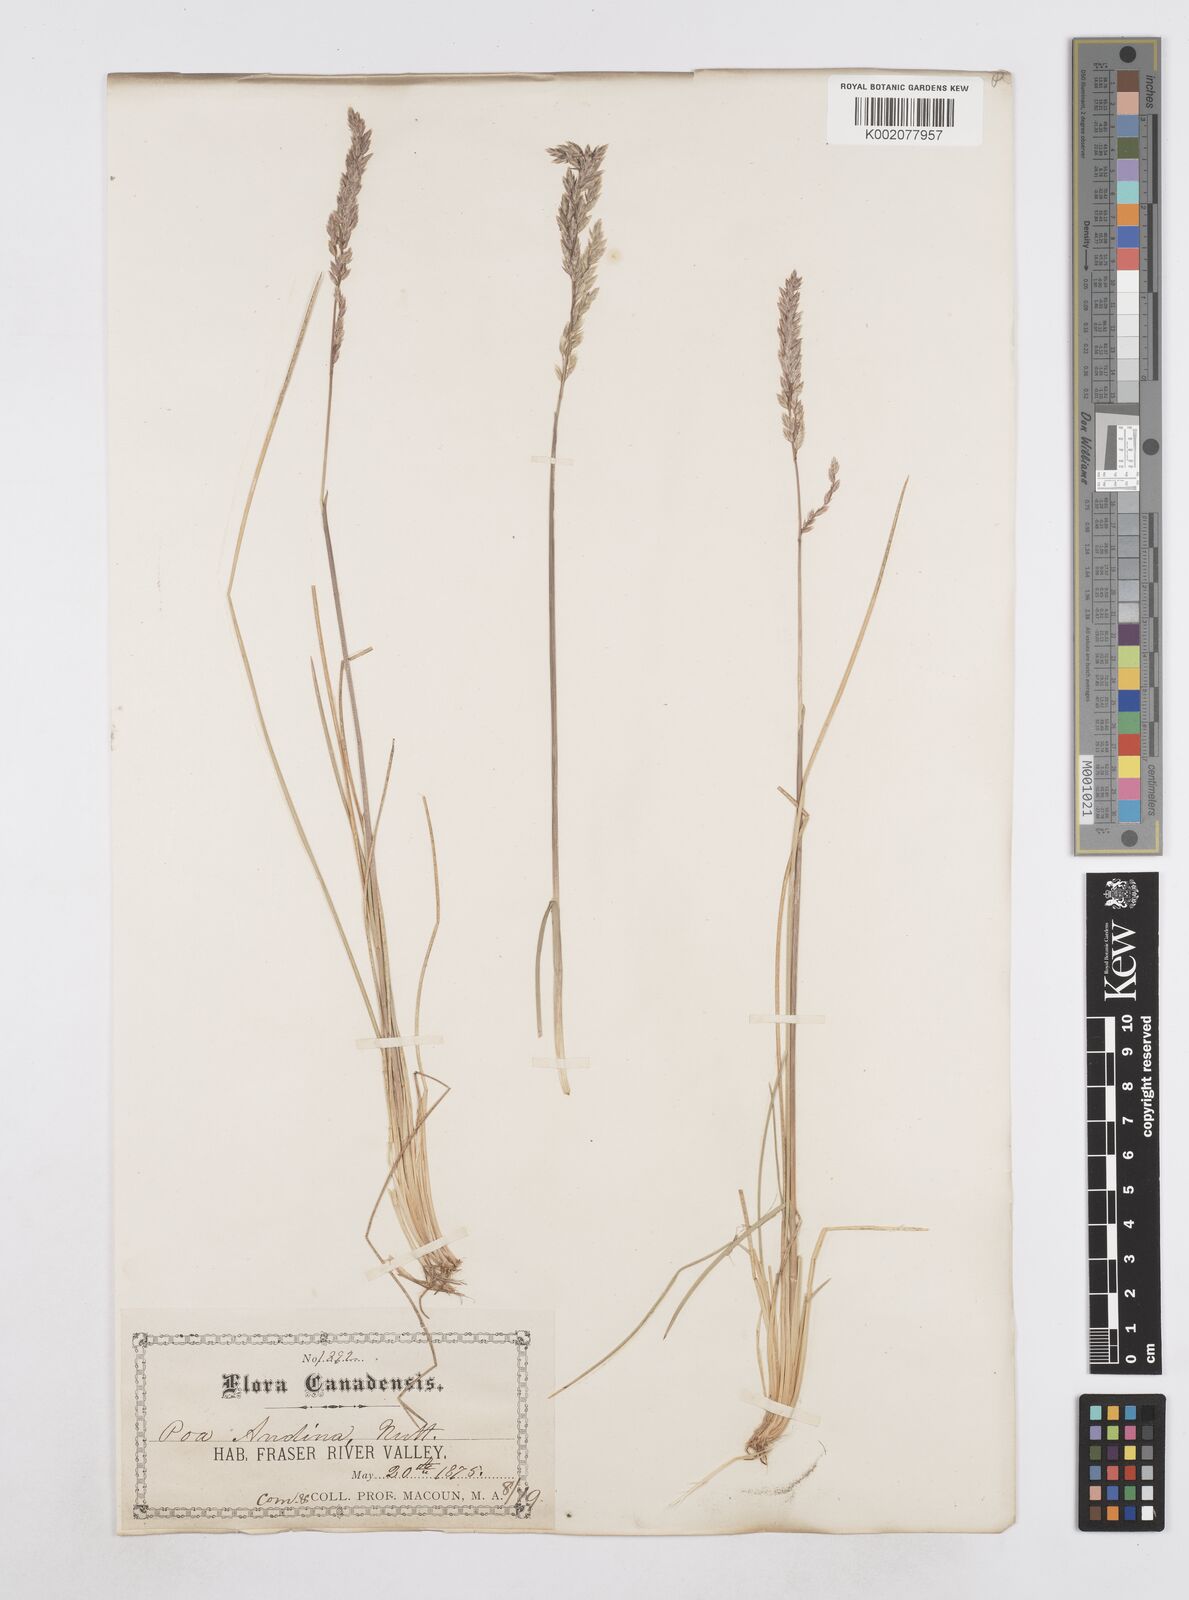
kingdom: Plantae
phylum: Tracheophyta
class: Liliopsida
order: Poales
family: Poaceae
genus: Poa
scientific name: Poa arida
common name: Plains bluegrass
